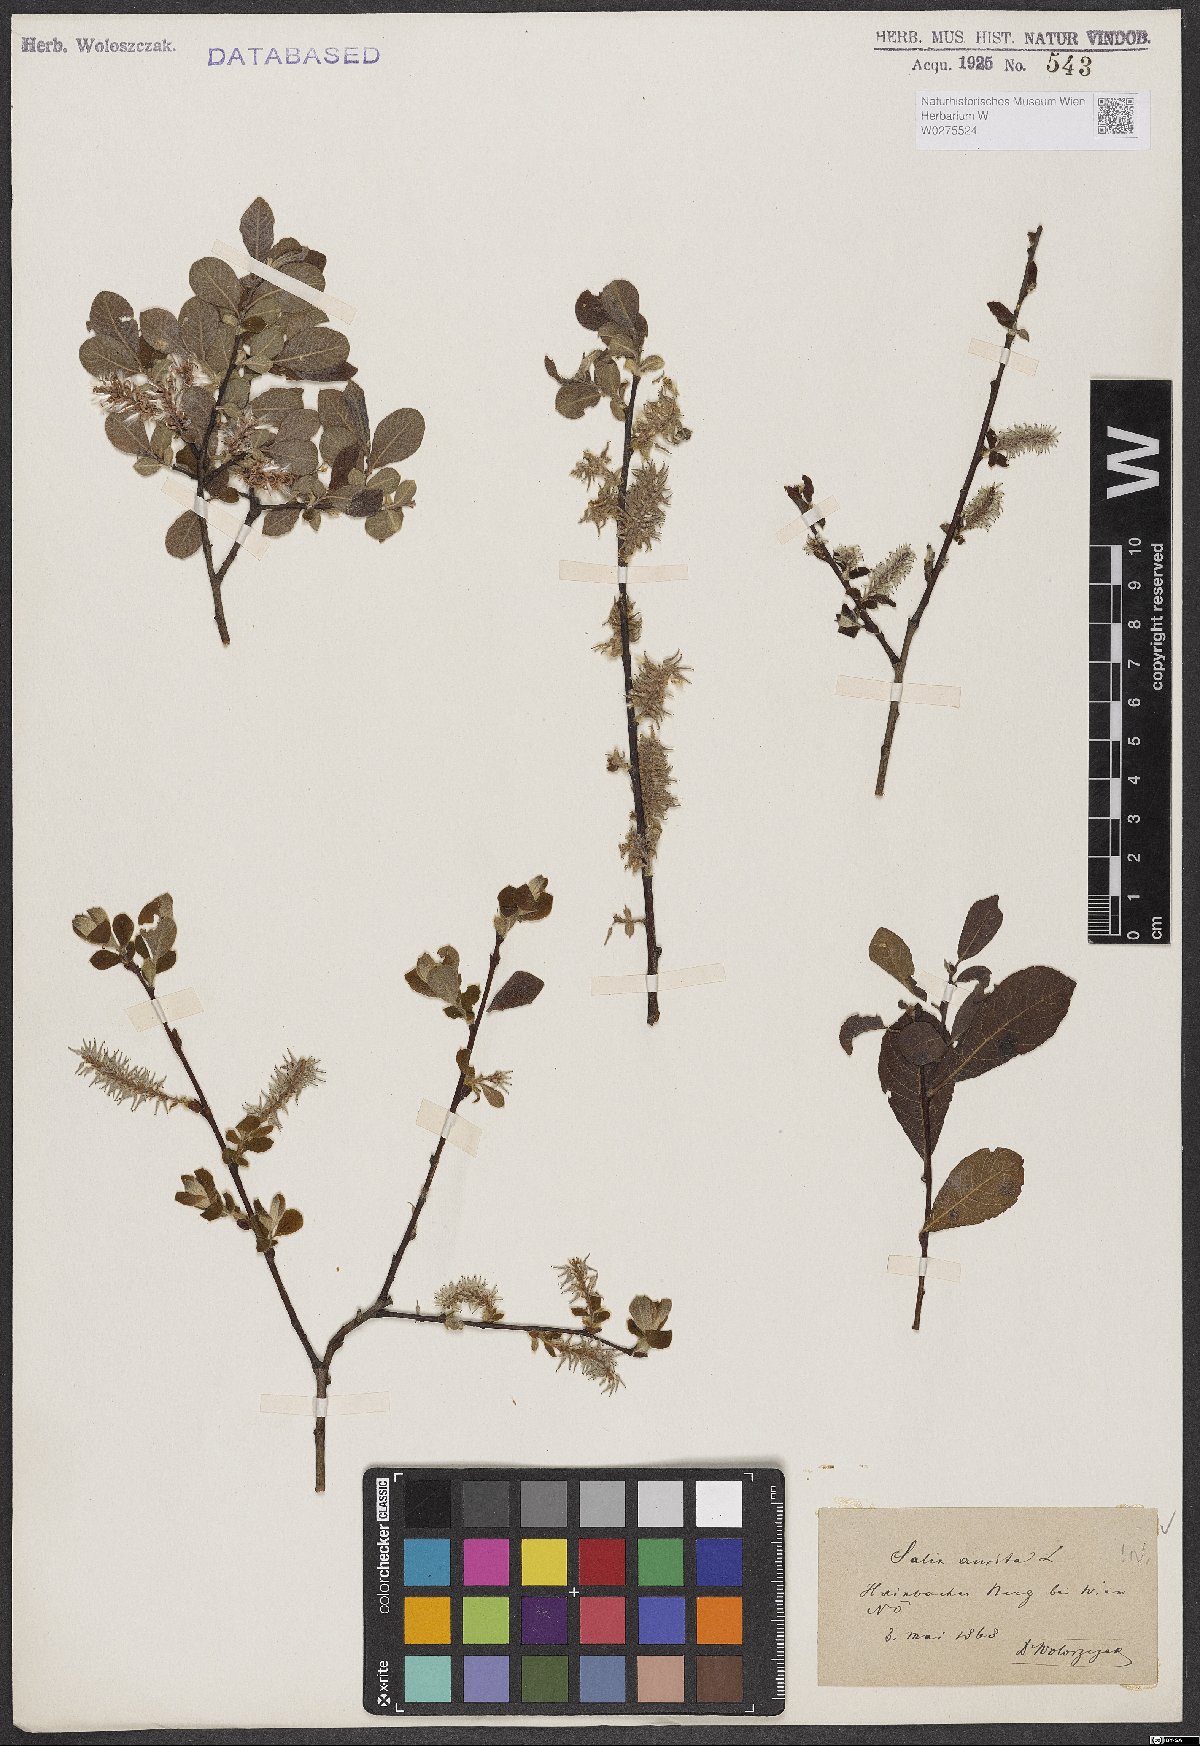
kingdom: Plantae
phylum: Tracheophyta
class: Magnoliopsida
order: Malpighiales
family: Salicaceae
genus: Salix
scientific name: Salix aurita
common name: Eared willow
